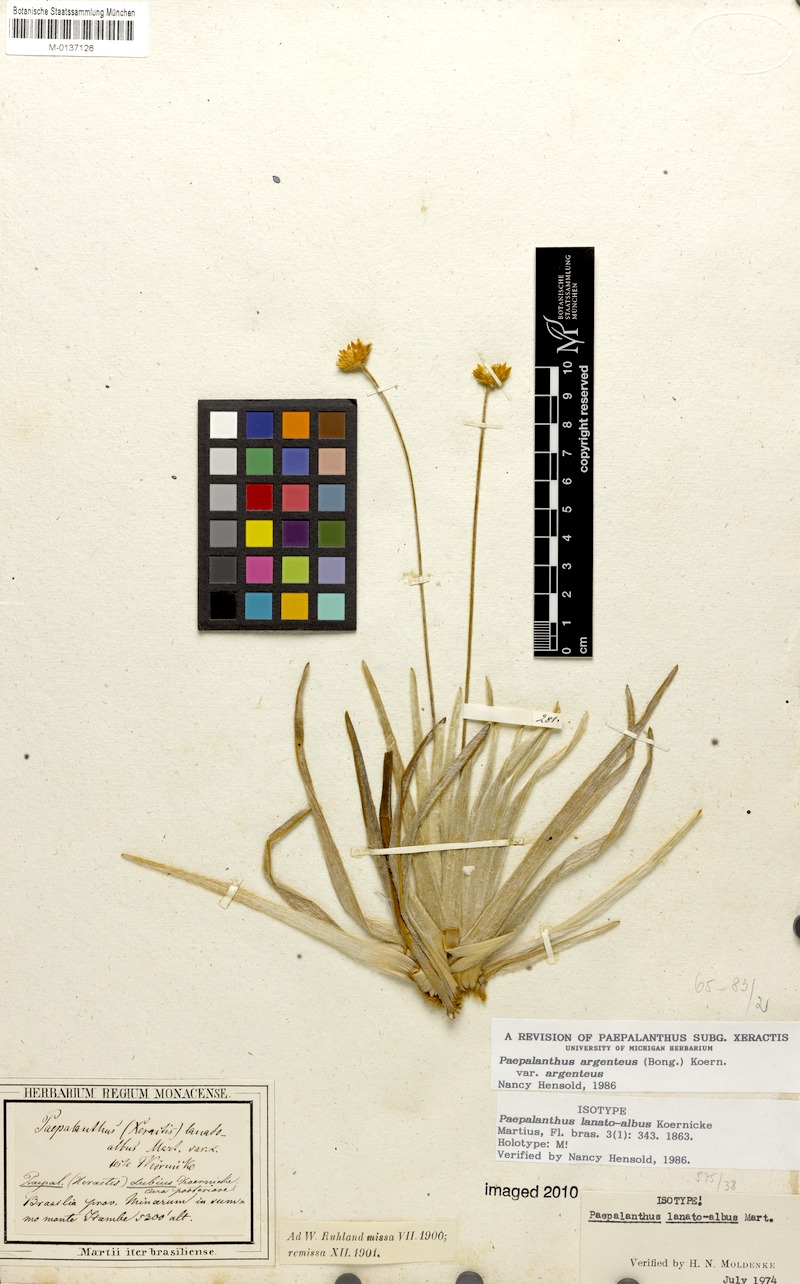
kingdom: Plantae
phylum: Tracheophyta
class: Liliopsida
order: Poales
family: Eriocaulaceae
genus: Paepalanthus
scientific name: Paepalanthus argenteus
